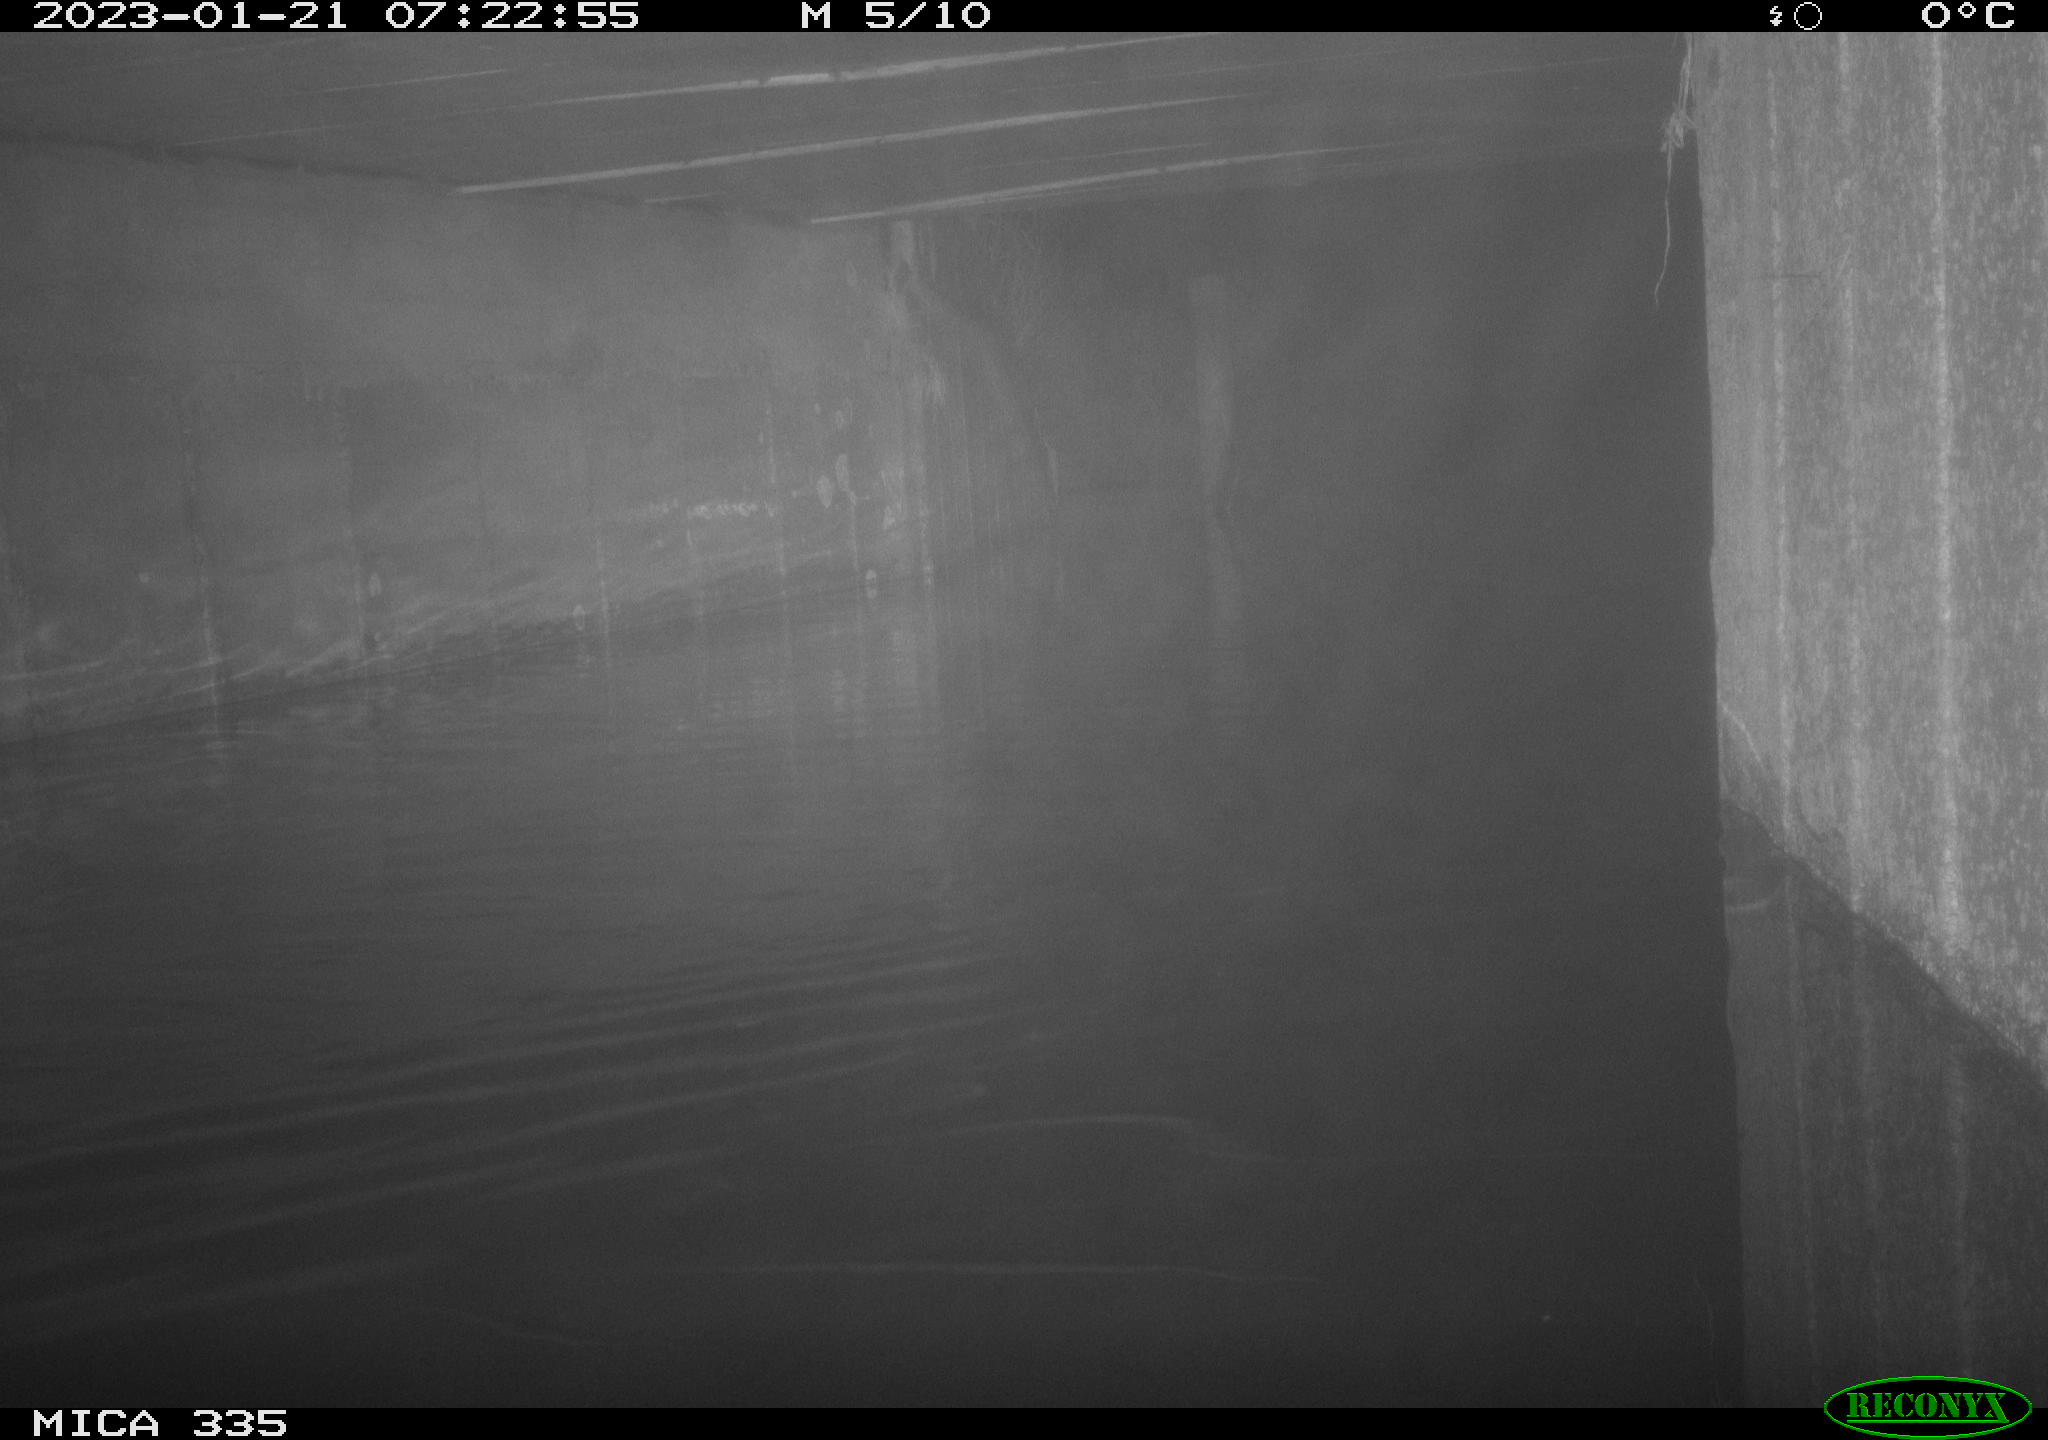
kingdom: Animalia
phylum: Chordata
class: Aves
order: Anseriformes
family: Anatidae
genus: Anas
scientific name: Anas
